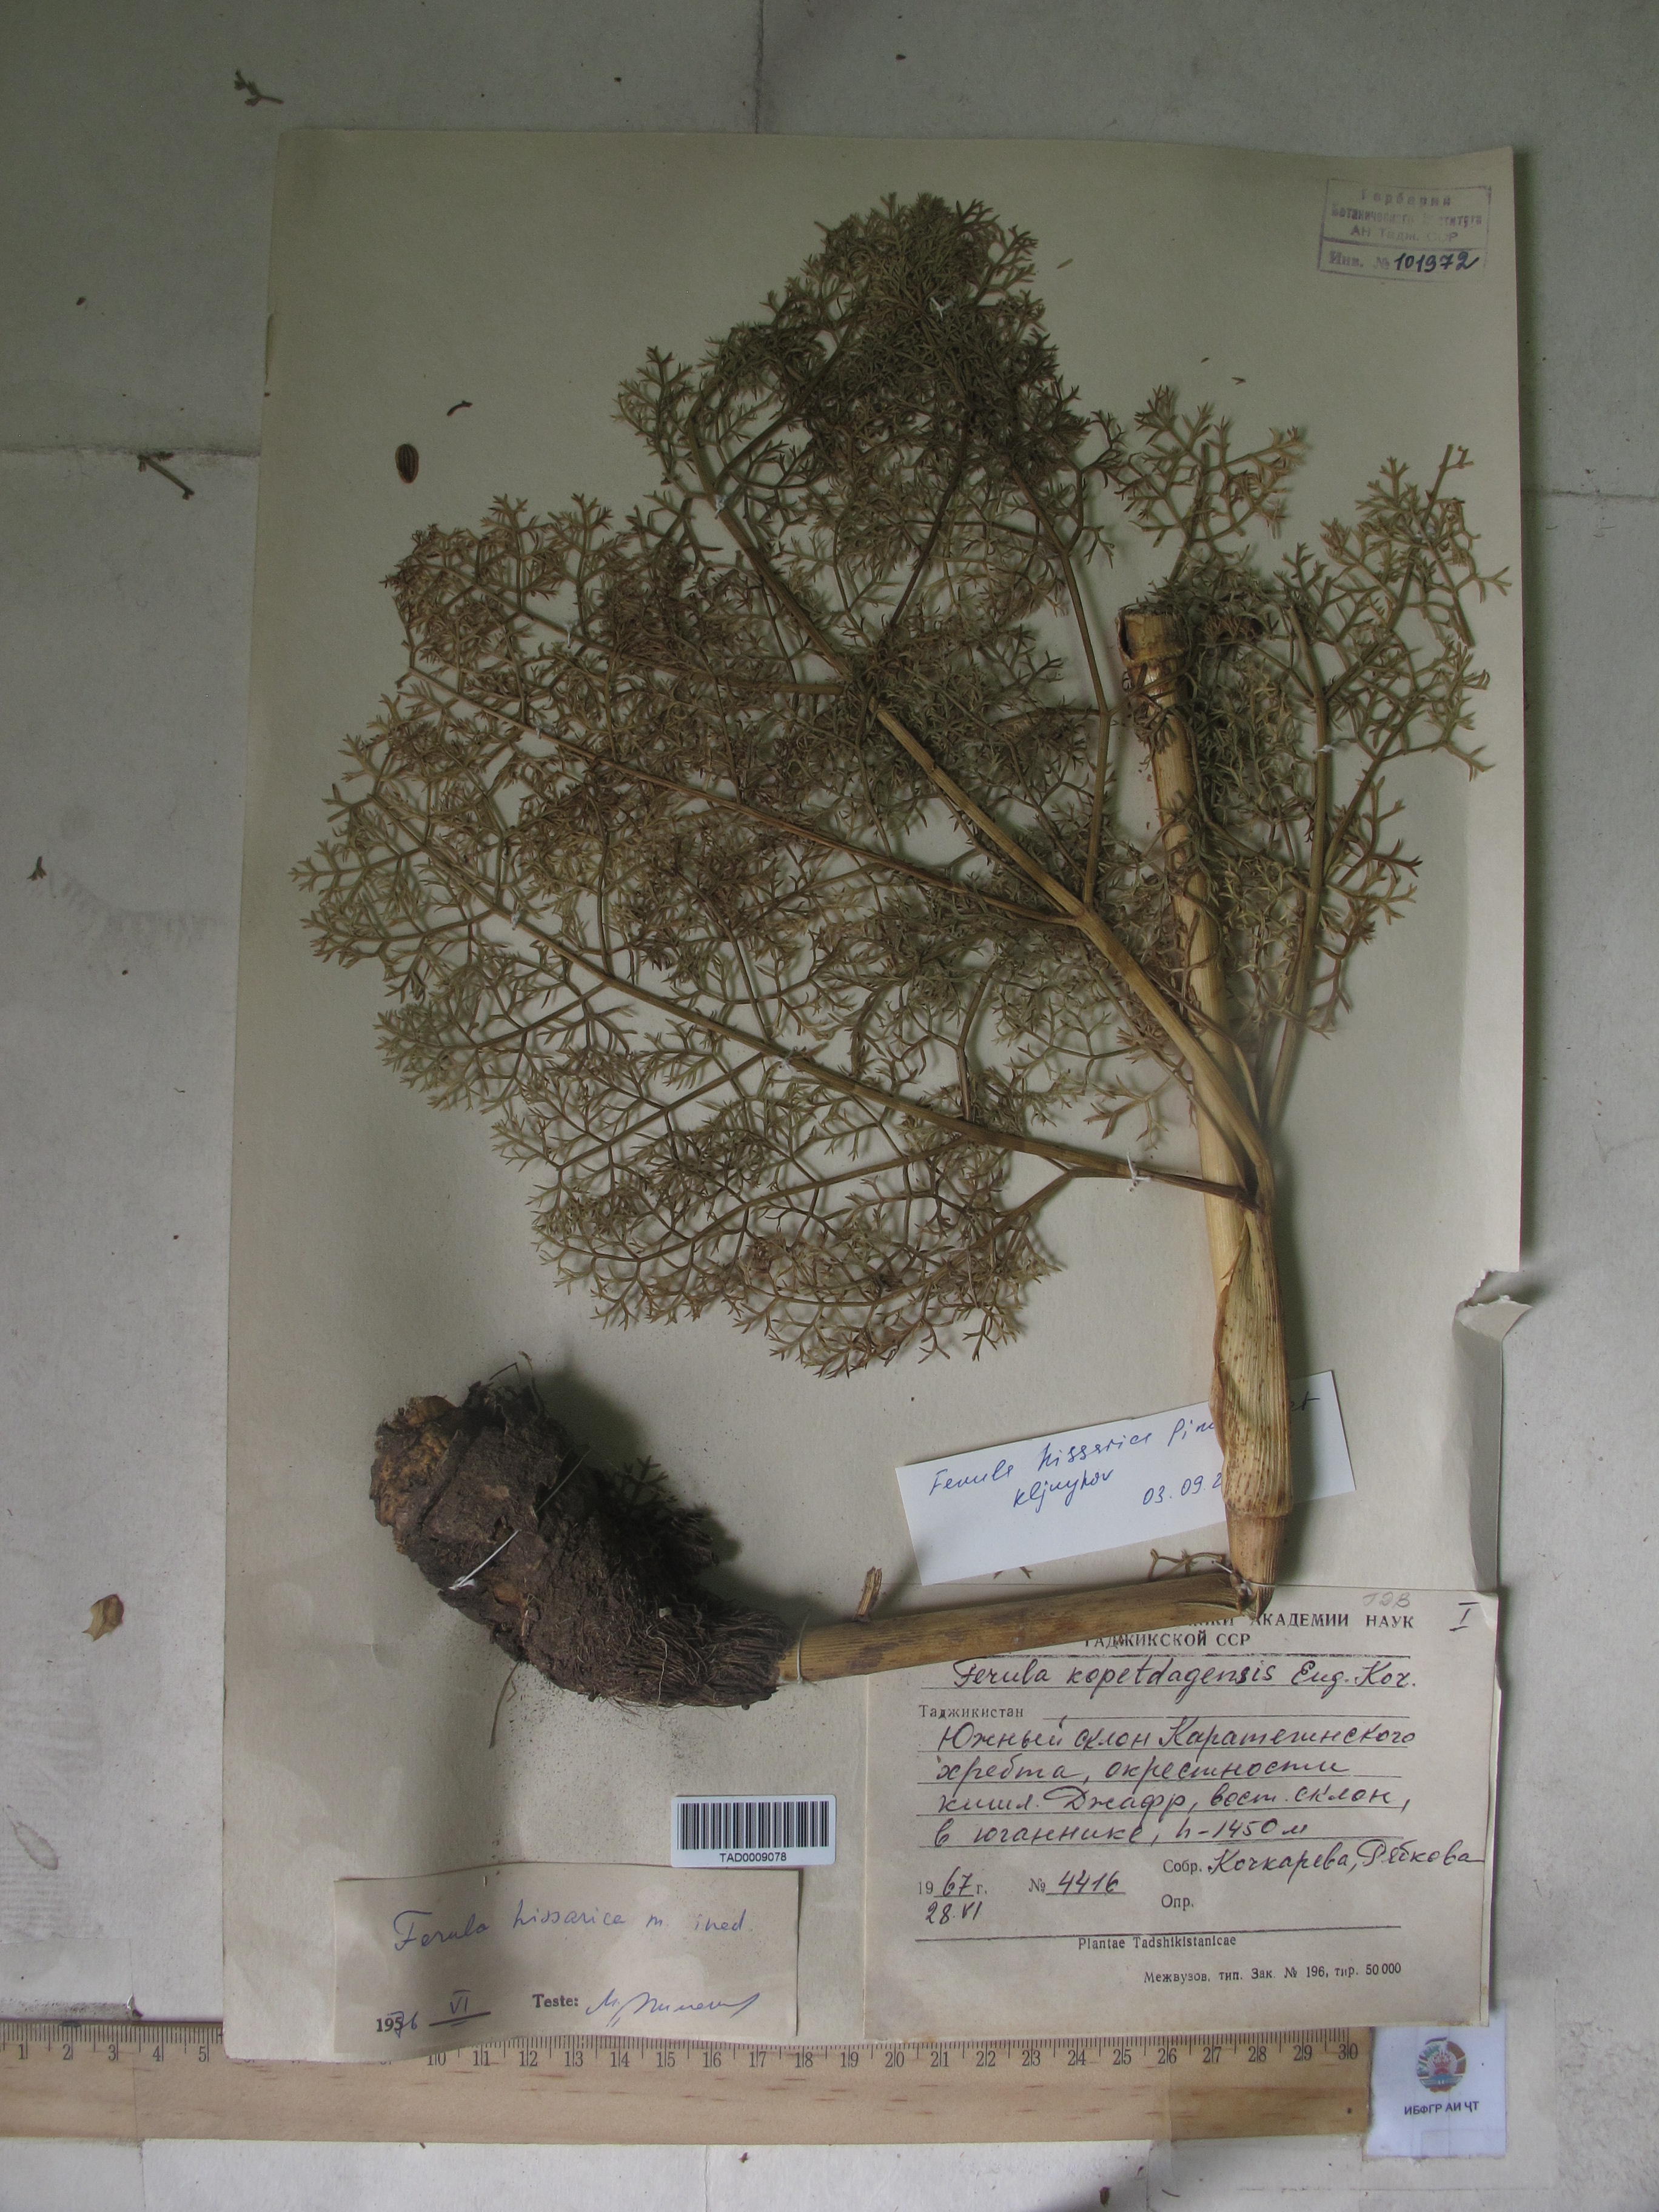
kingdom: Plantae
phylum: Tracheophyta
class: Magnoliopsida
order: Apiales
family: Apiaceae
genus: Ferula
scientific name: Ferula hissarica
